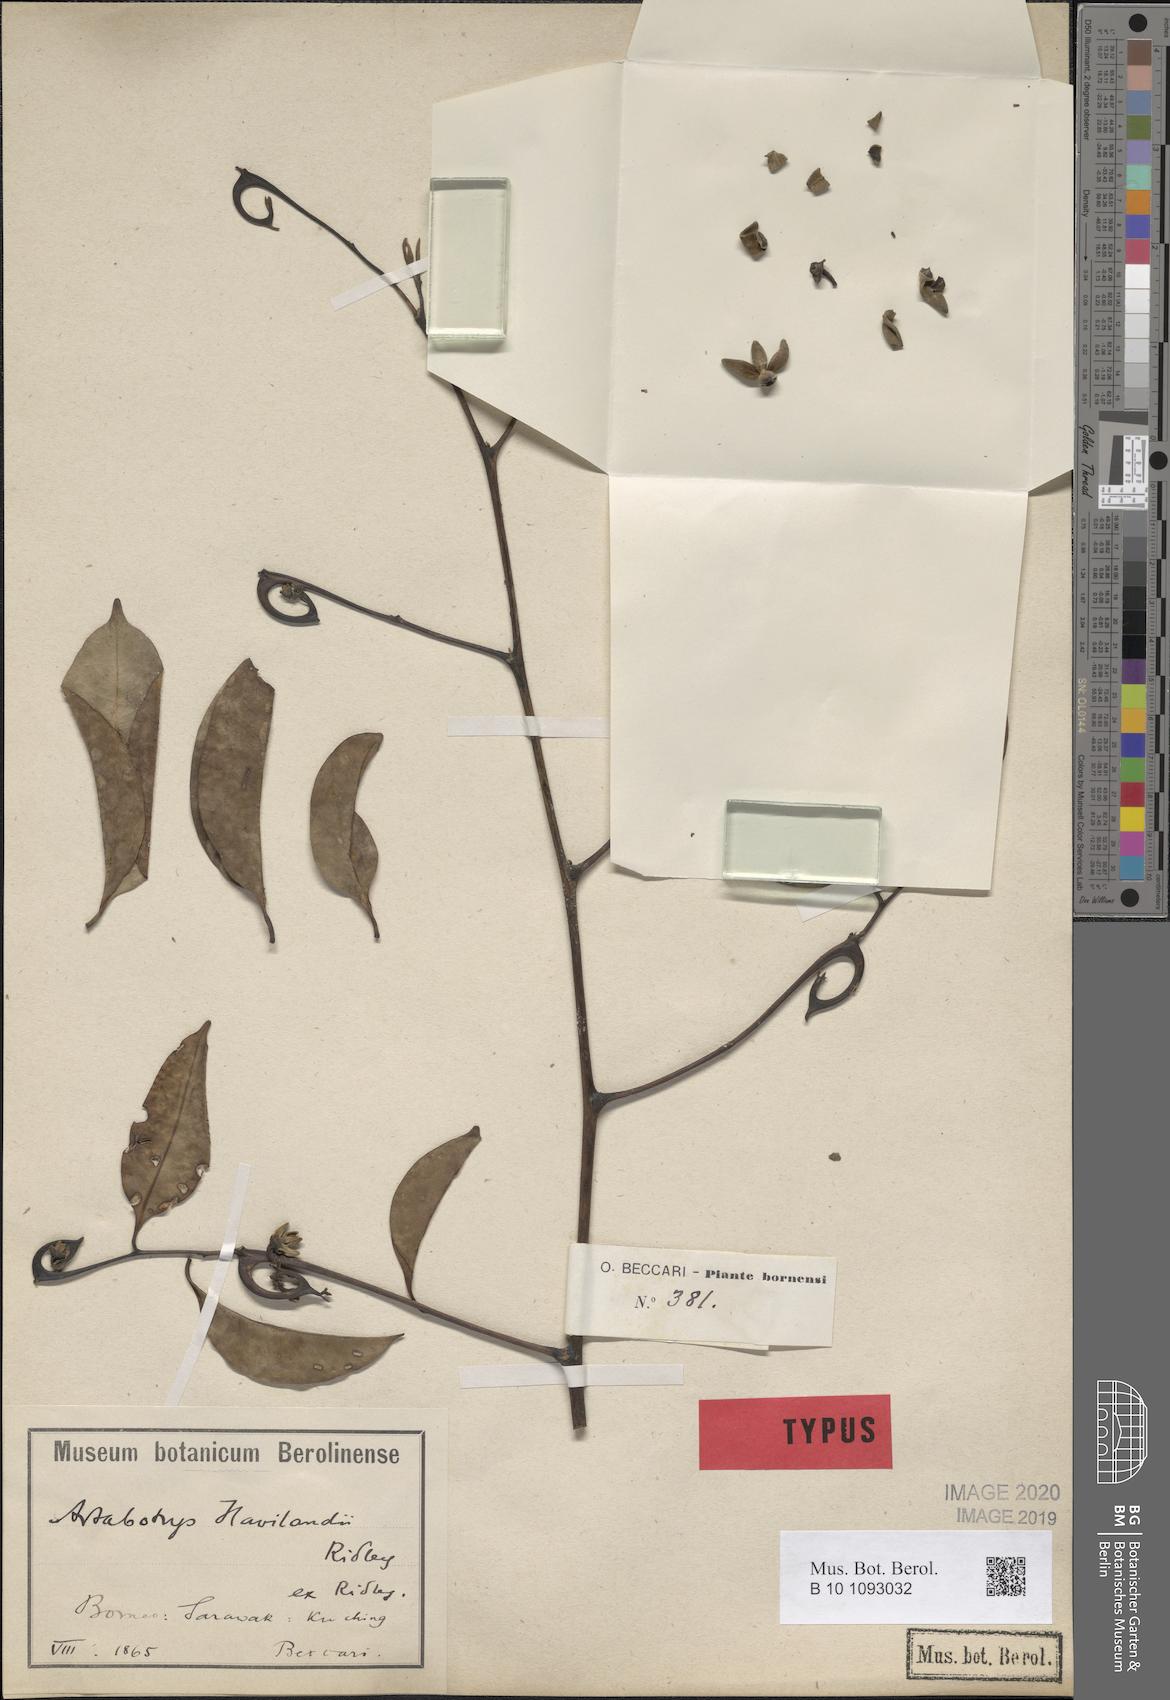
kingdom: Plantae
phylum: Tracheophyta
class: Magnoliopsida
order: Magnoliales
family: Annonaceae
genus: Artabotrys
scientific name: Artabotrys maingayi
